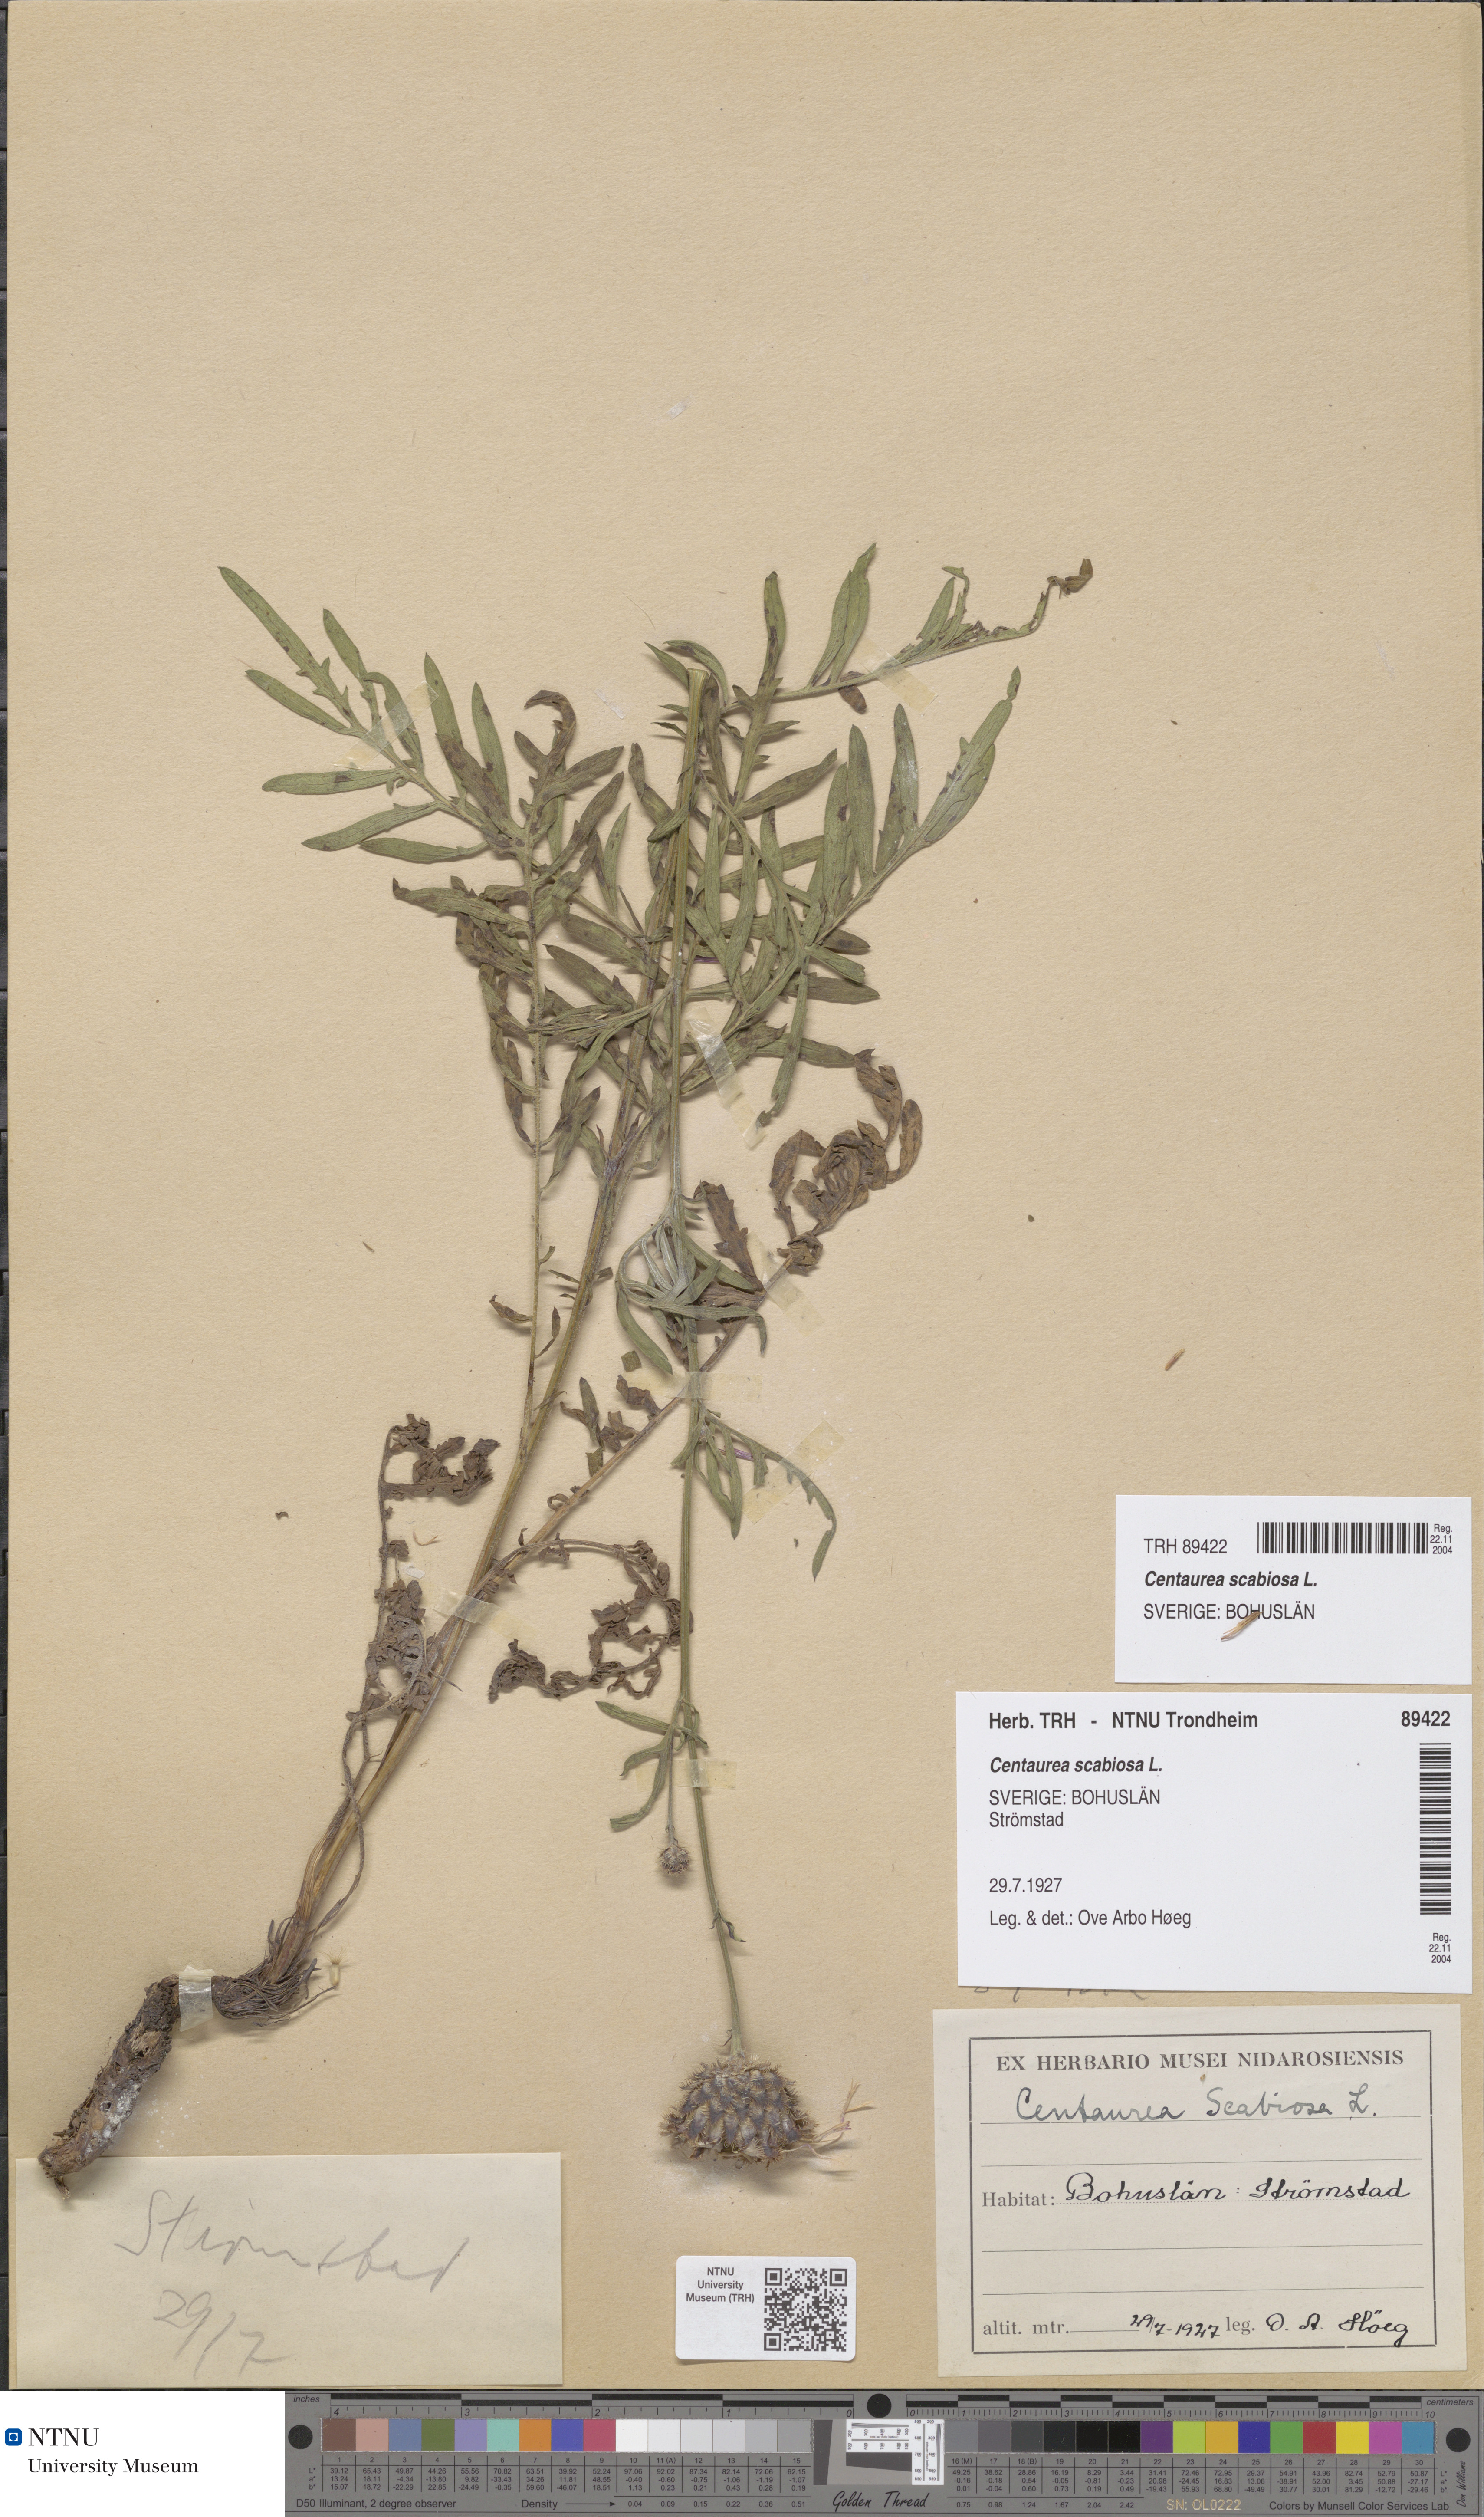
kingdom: Plantae
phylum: Tracheophyta
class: Magnoliopsida
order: Asterales
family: Asteraceae
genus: Centaurea
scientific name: Centaurea scabiosa
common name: Greater knapweed
